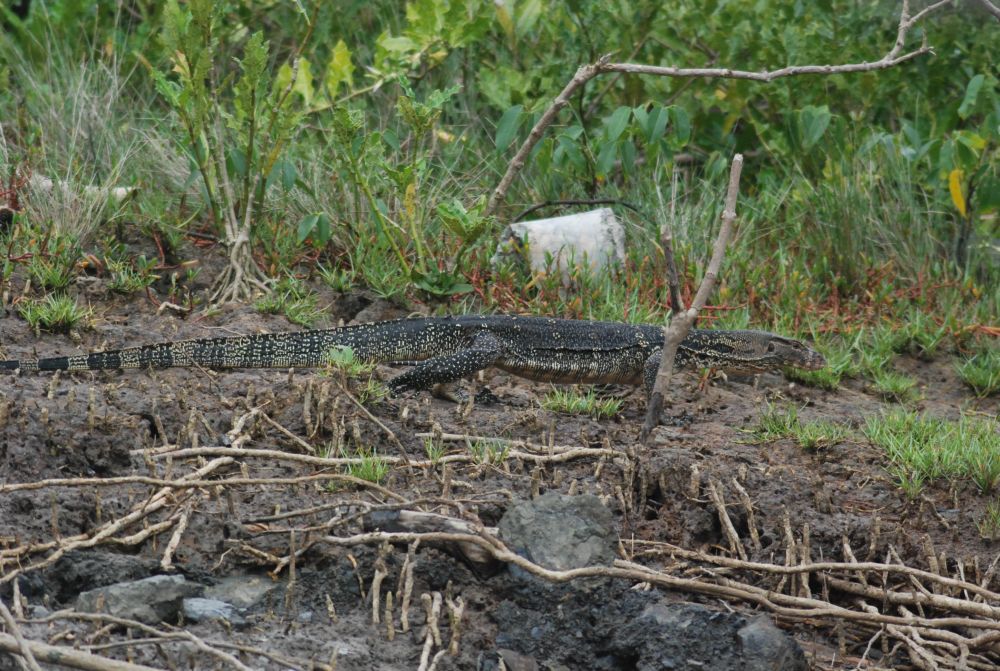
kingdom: Animalia
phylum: Chordata
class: Squamata
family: Varanidae
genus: Varanus
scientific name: Varanus salvator
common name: Common water monitor
